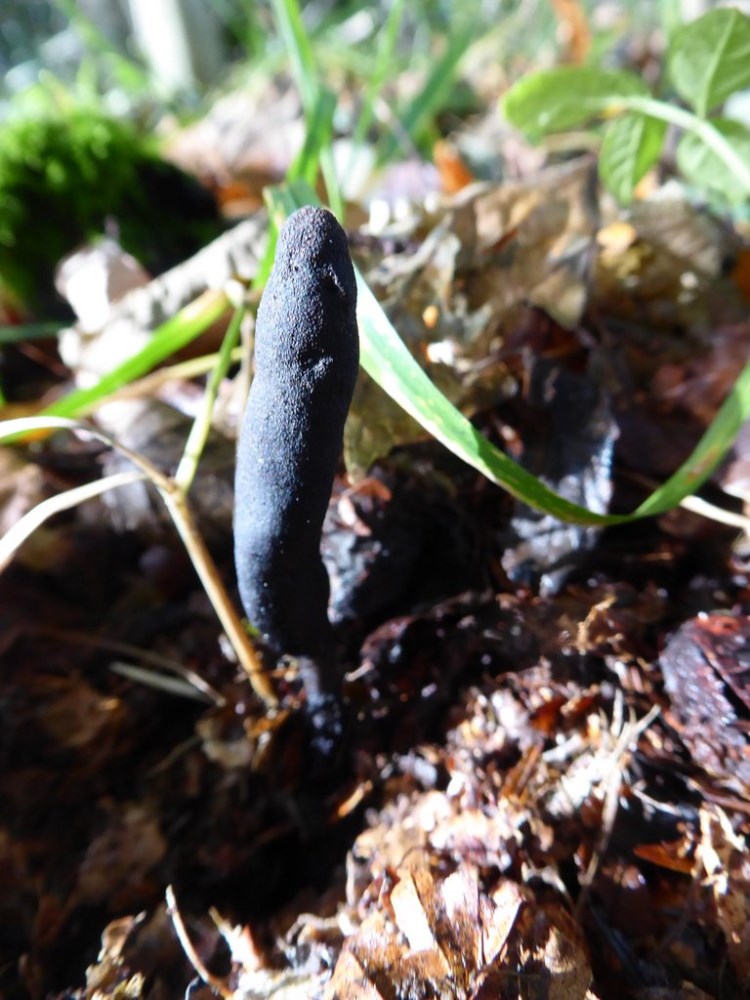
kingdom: Fungi
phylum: Ascomycota
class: Sordariomycetes
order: Xylariales
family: Xylariaceae
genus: Xylaria
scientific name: Xylaria longipes
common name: slank stødsvamp
